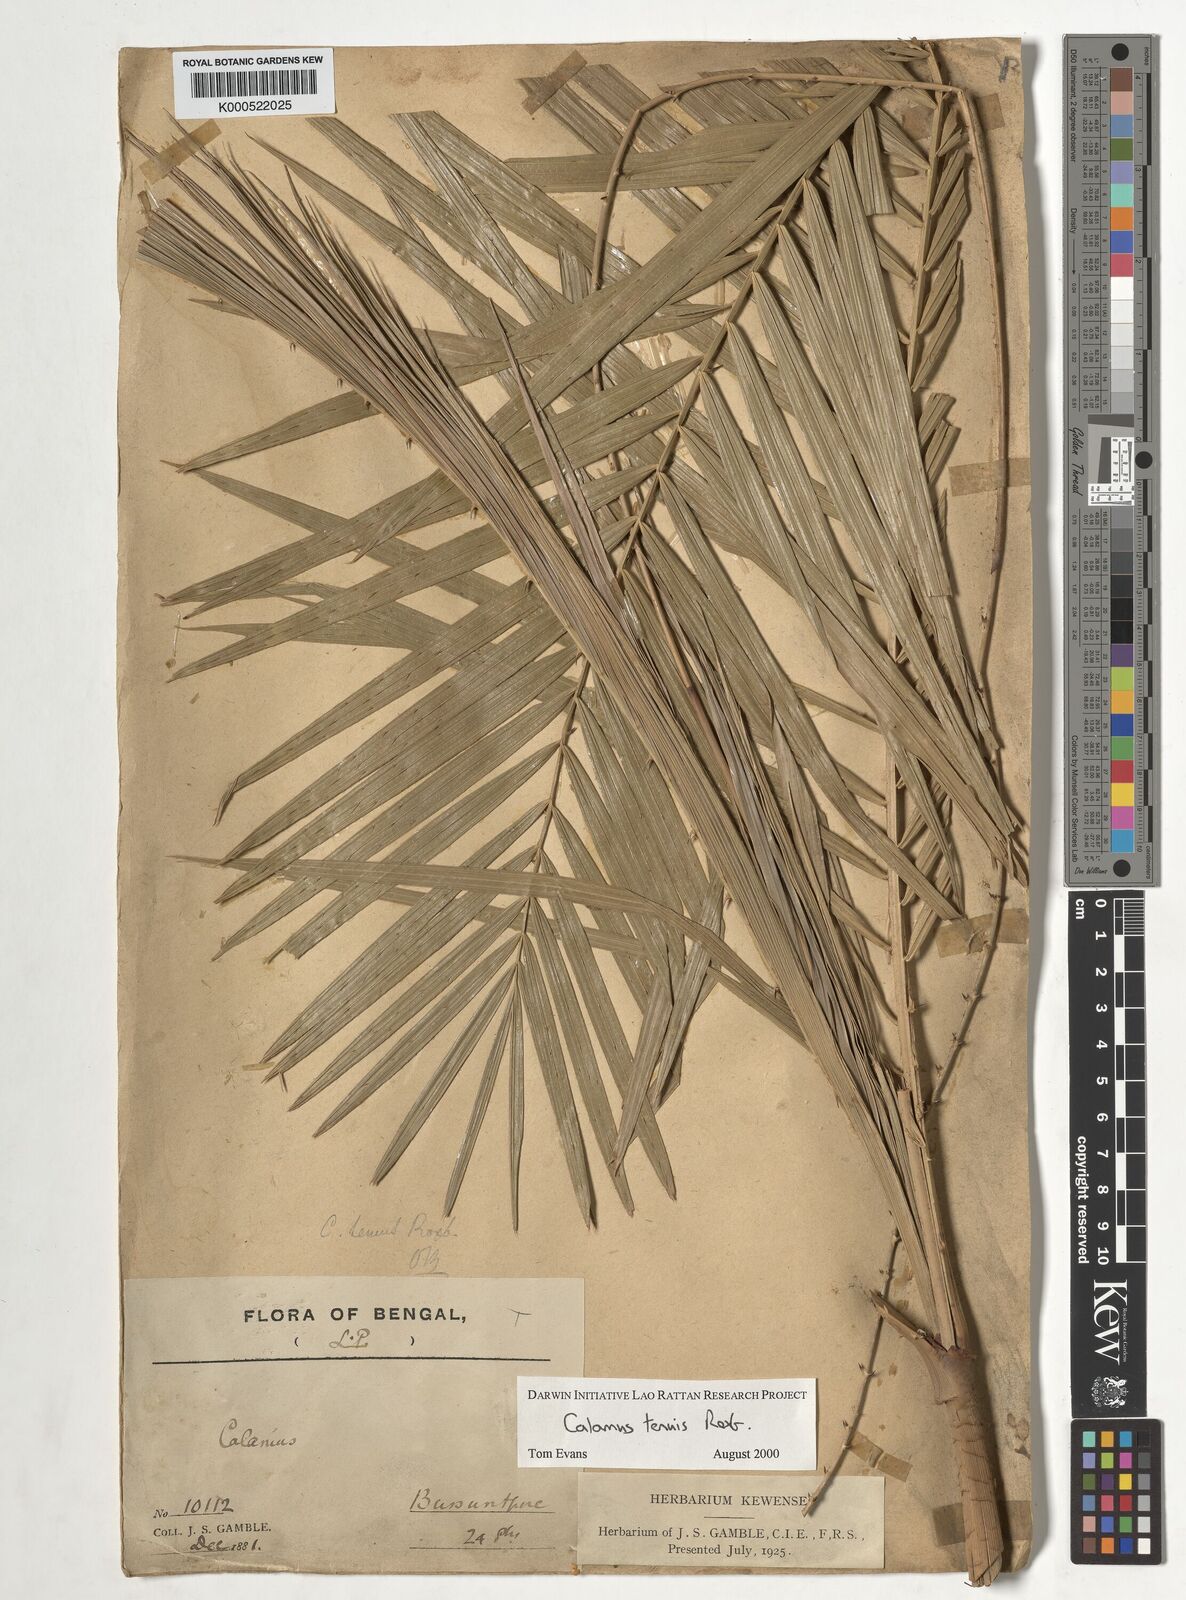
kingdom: Plantae
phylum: Tracheophyta
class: Liliopsida
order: Arecales
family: Arecaceae
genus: Calamus
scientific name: Calamus tenuis
